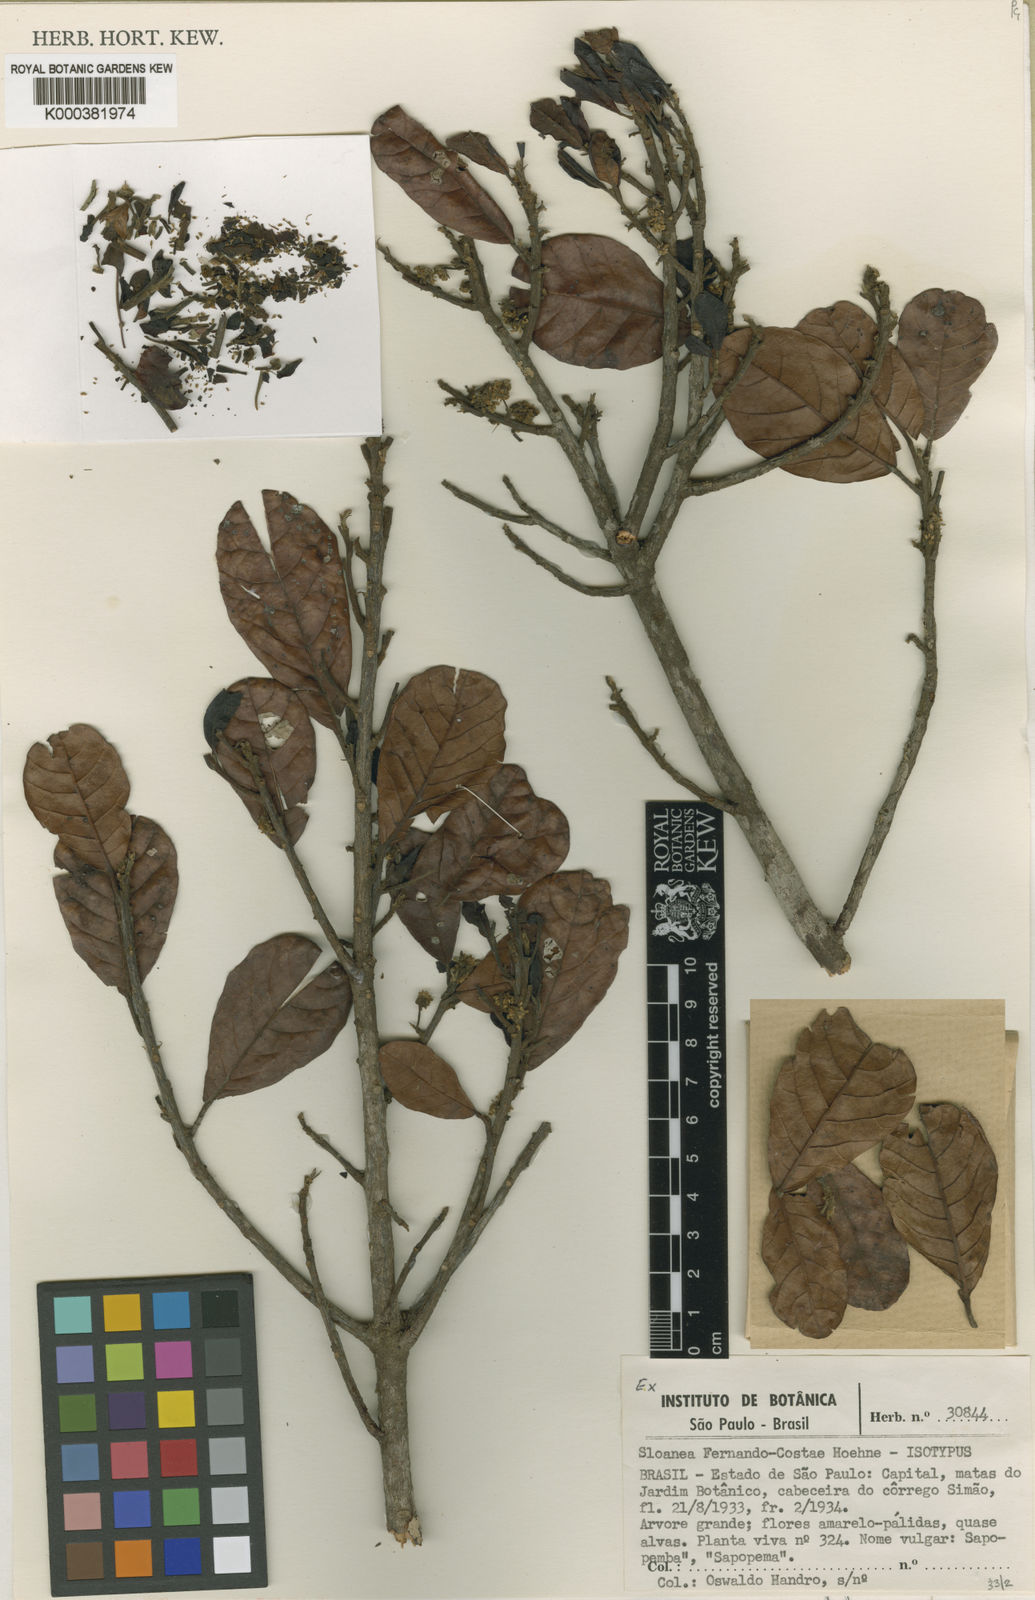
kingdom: Plantae
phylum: Tracheophyta
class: Magnoliopsida
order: Oxalidales
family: Elaeocarpaceae
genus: Sloanea
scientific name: Sloanea obtusifolia
